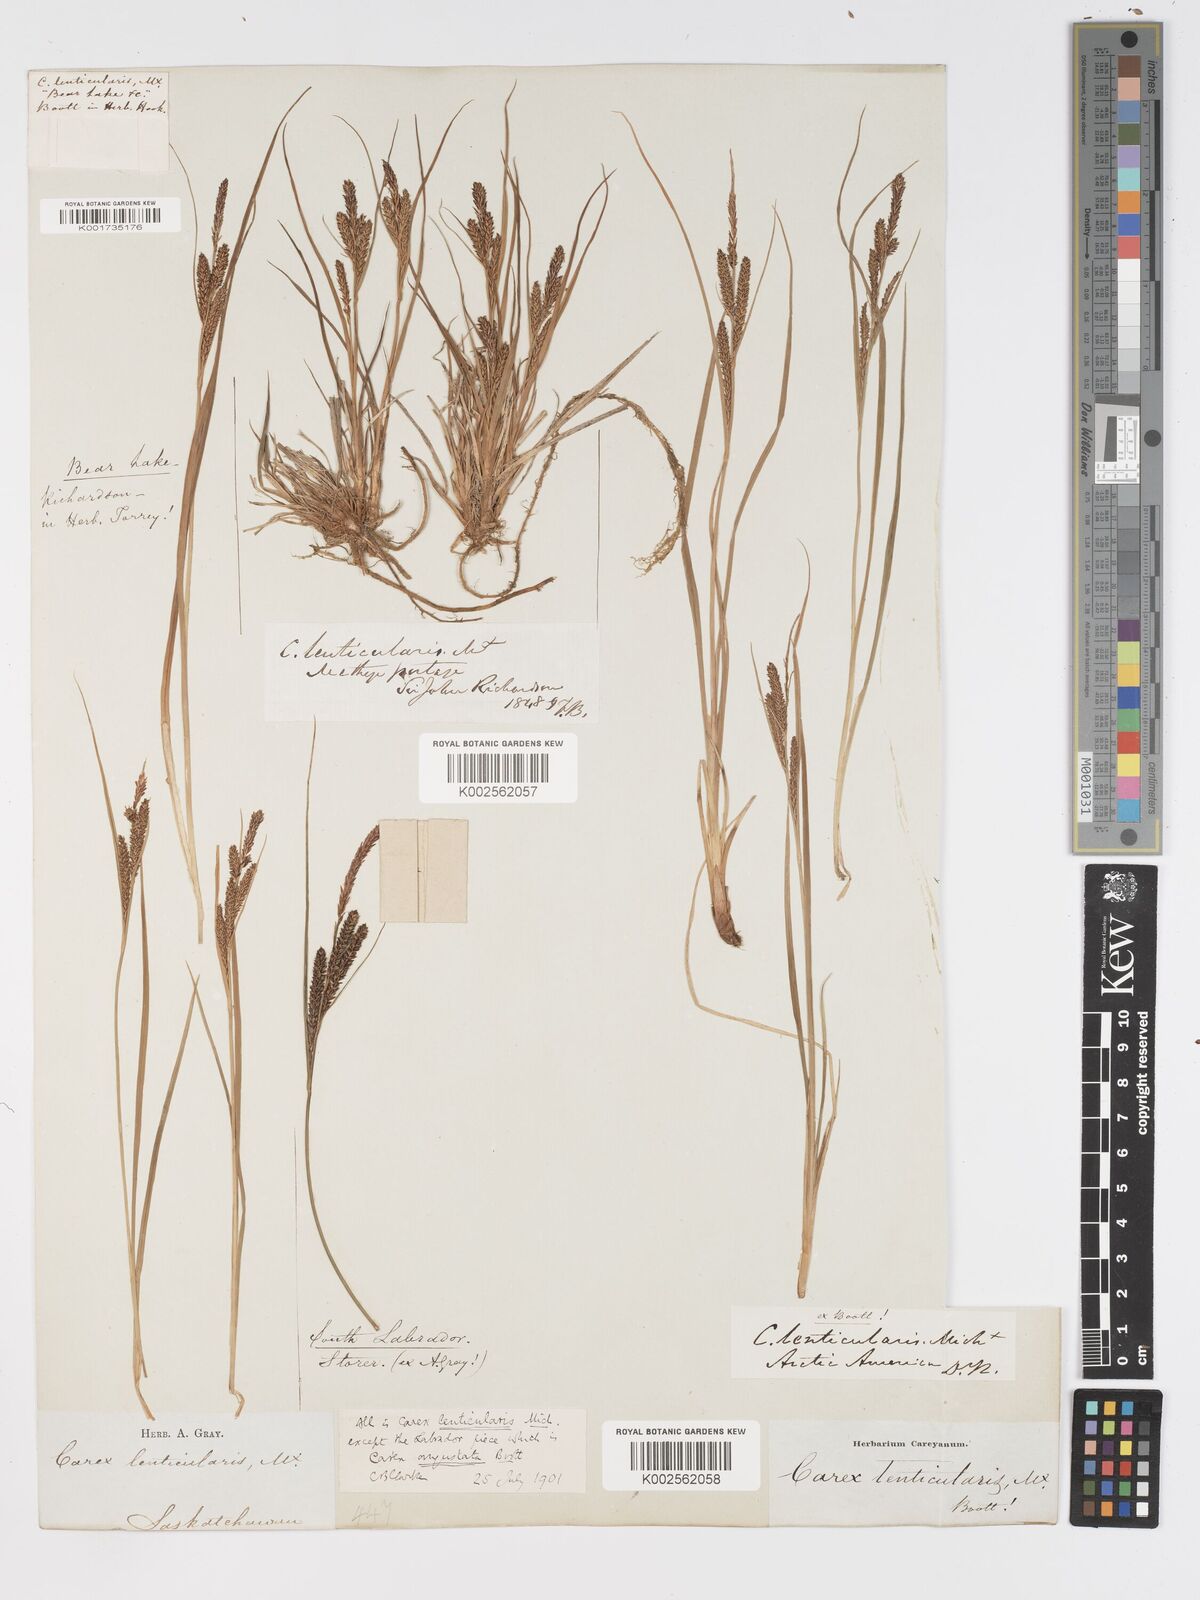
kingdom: Plantae
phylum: Tracheophyta
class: Liliopsida
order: Poales
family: Cyperaceae
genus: Carex
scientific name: Carex lenticularis
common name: Lakeshore sedge
